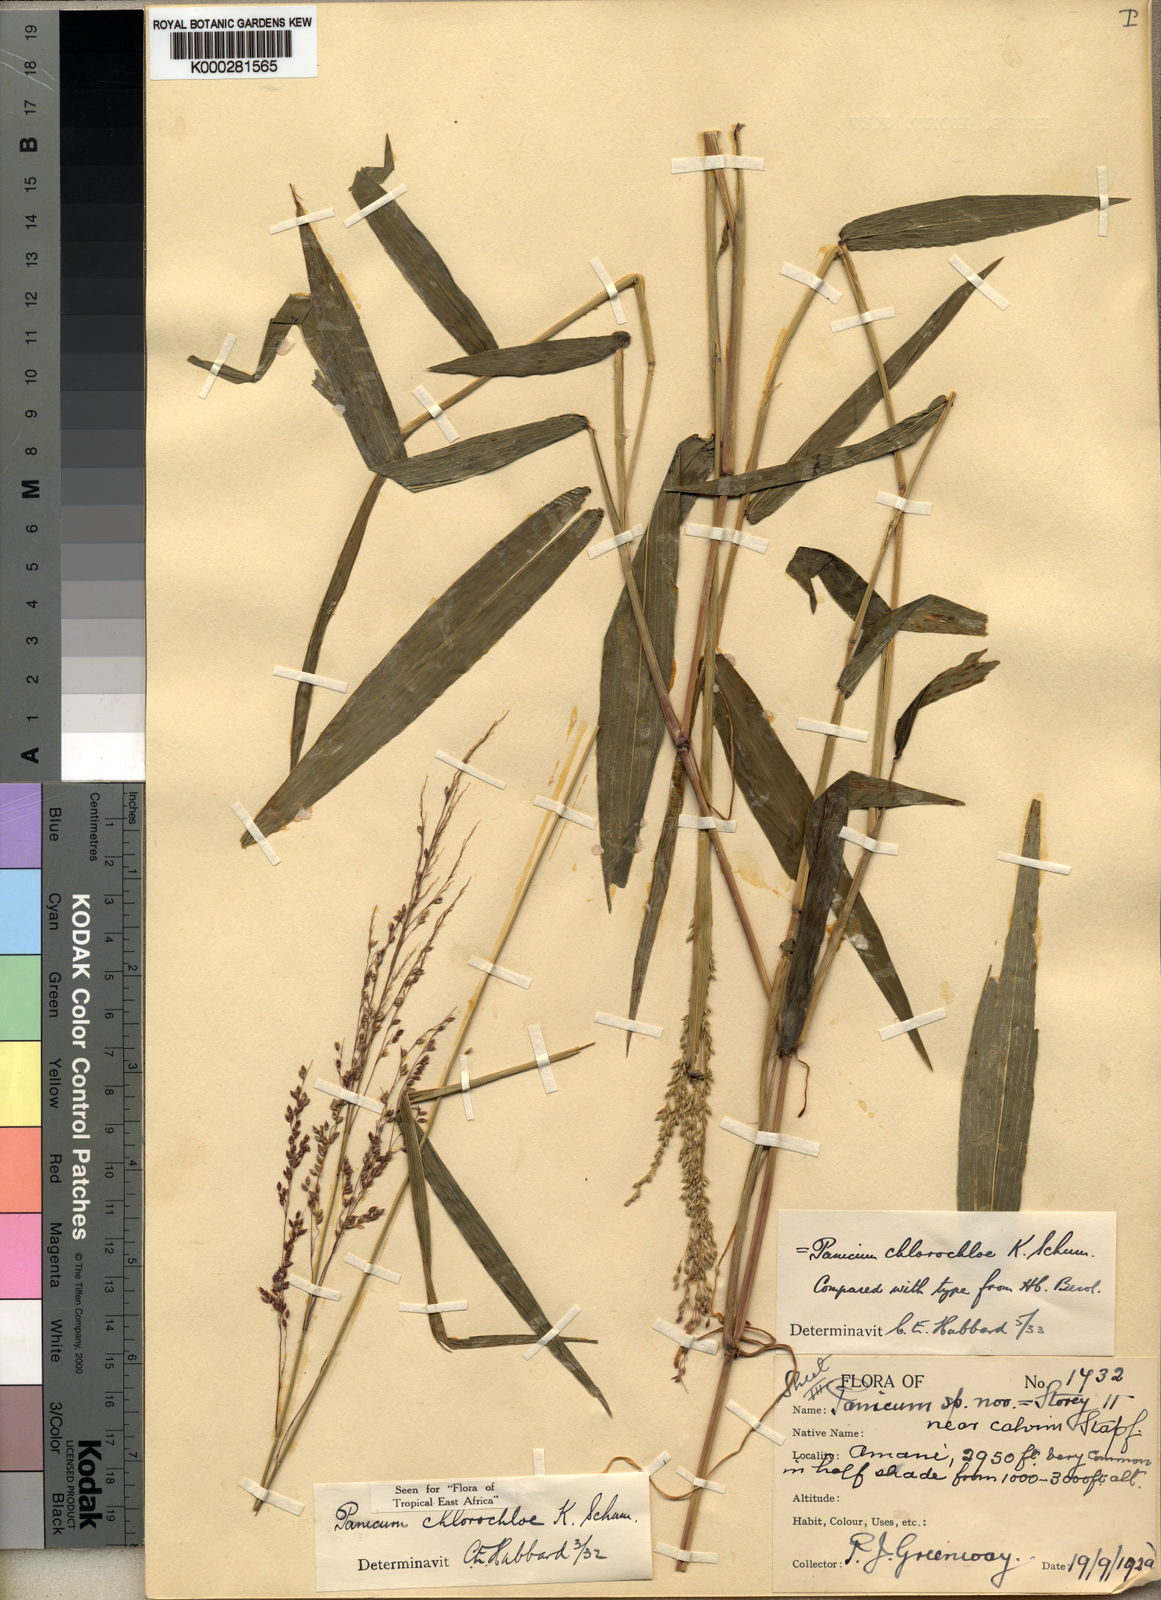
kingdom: Plantae
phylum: Tracheophyta
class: Liliopsida
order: Poales
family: Poaceae
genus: Hylebates
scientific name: Hylebates
